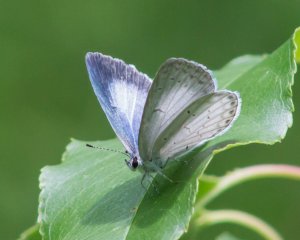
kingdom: Animalia
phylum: Arthropoda
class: Insecta
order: Lepidoptera
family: Lycaenidae
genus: Cyaniris
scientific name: Cyaniris neglecta
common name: Summer Azure
